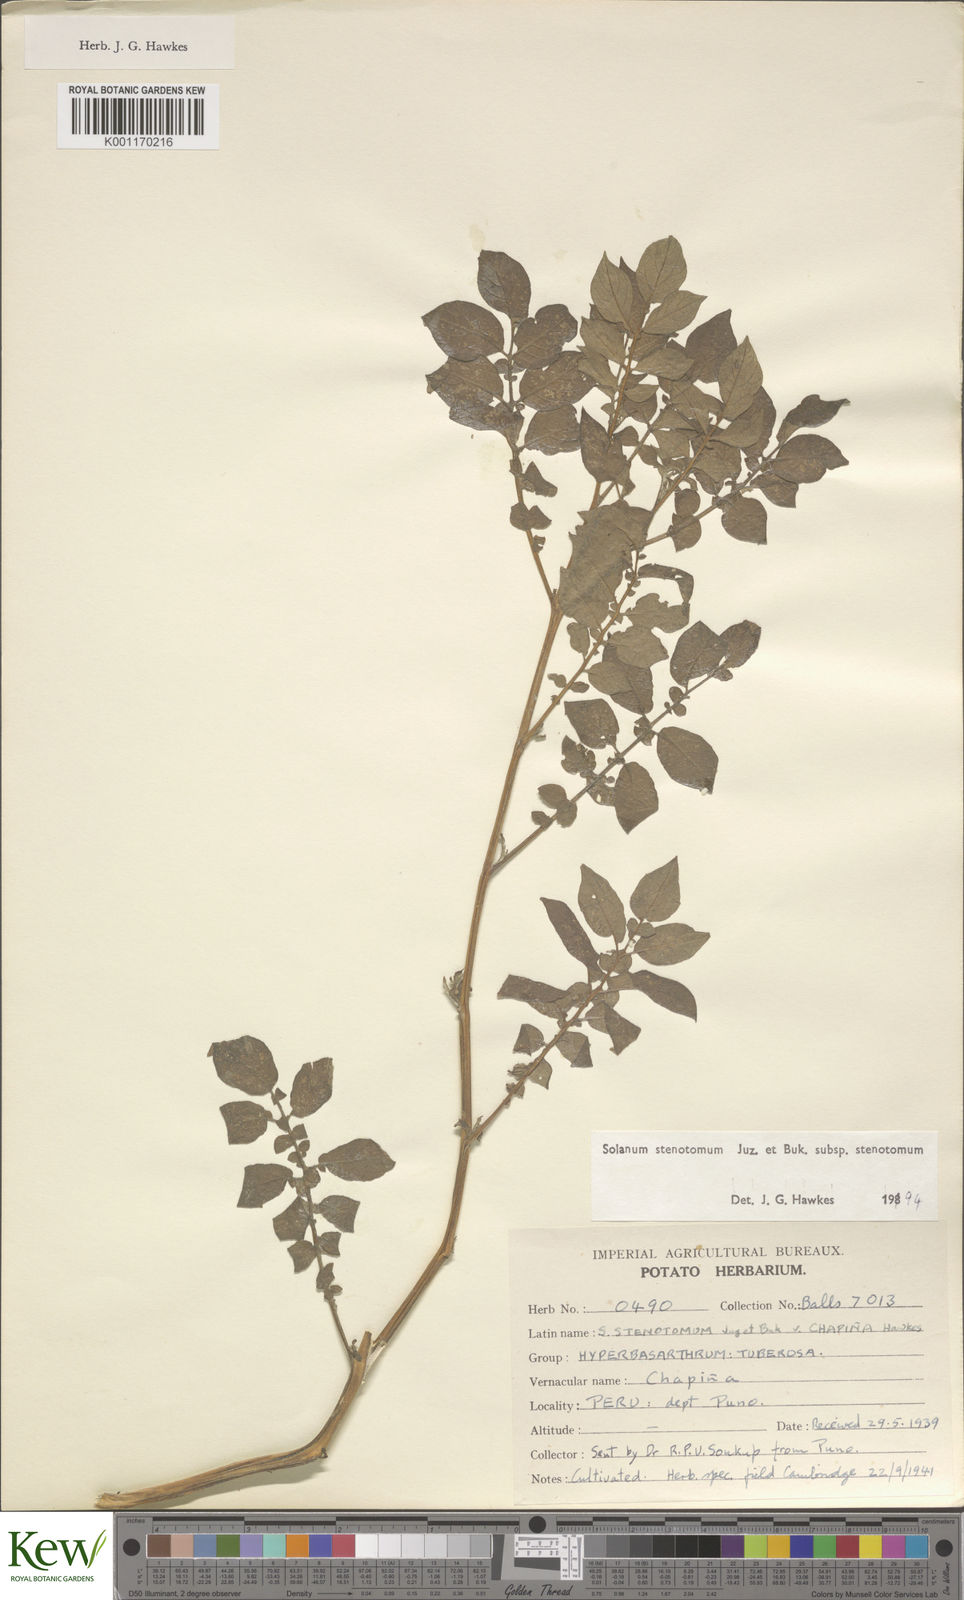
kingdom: Plantae
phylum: Tracheophyta
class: Magnoliopsida
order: Solanales
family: Solanaceae
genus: Solanum
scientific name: Solanum tuberosum
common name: Potato
